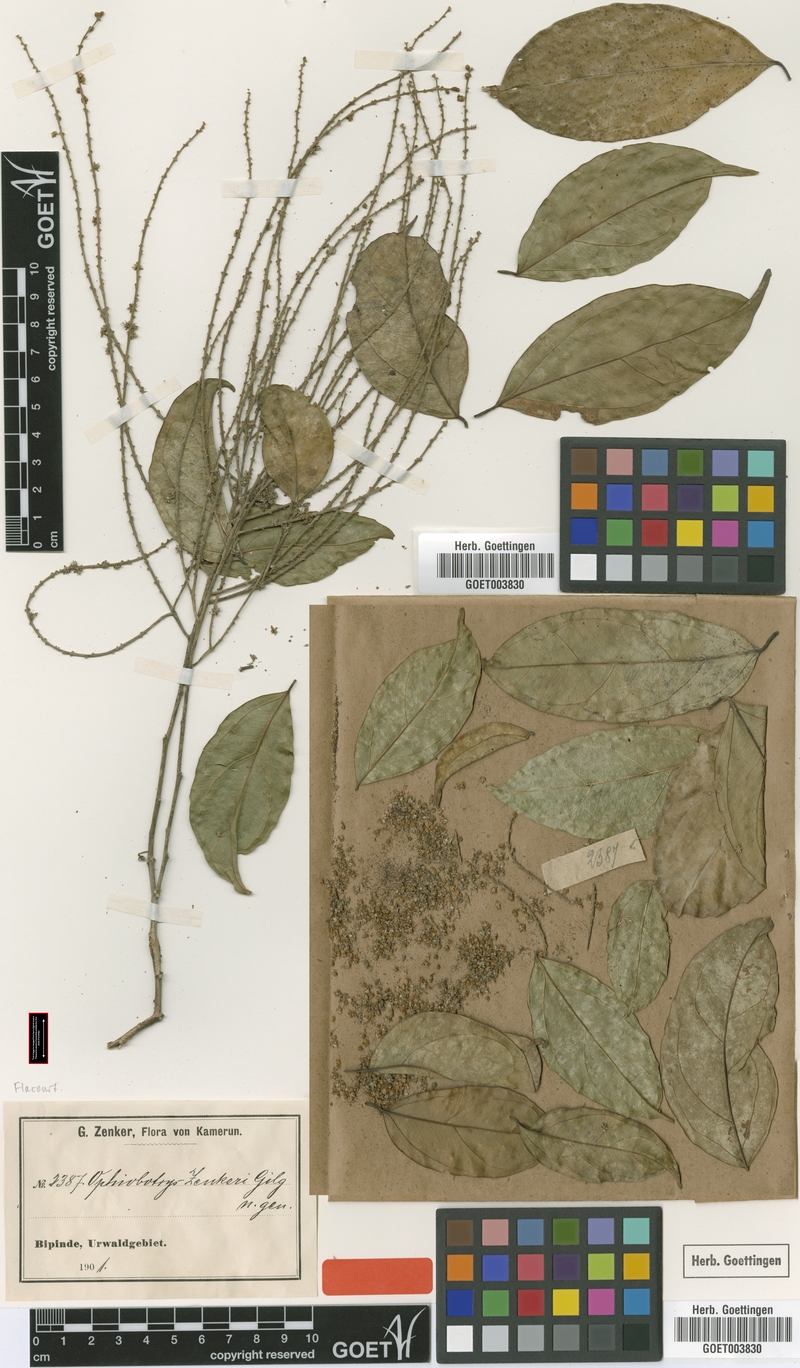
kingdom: Plantae
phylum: Tracheophyta
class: Magnoliopsida
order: Malpighiales
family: Salicaceae
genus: Ophiobotrys
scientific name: Ophiobotrys zenkeri
